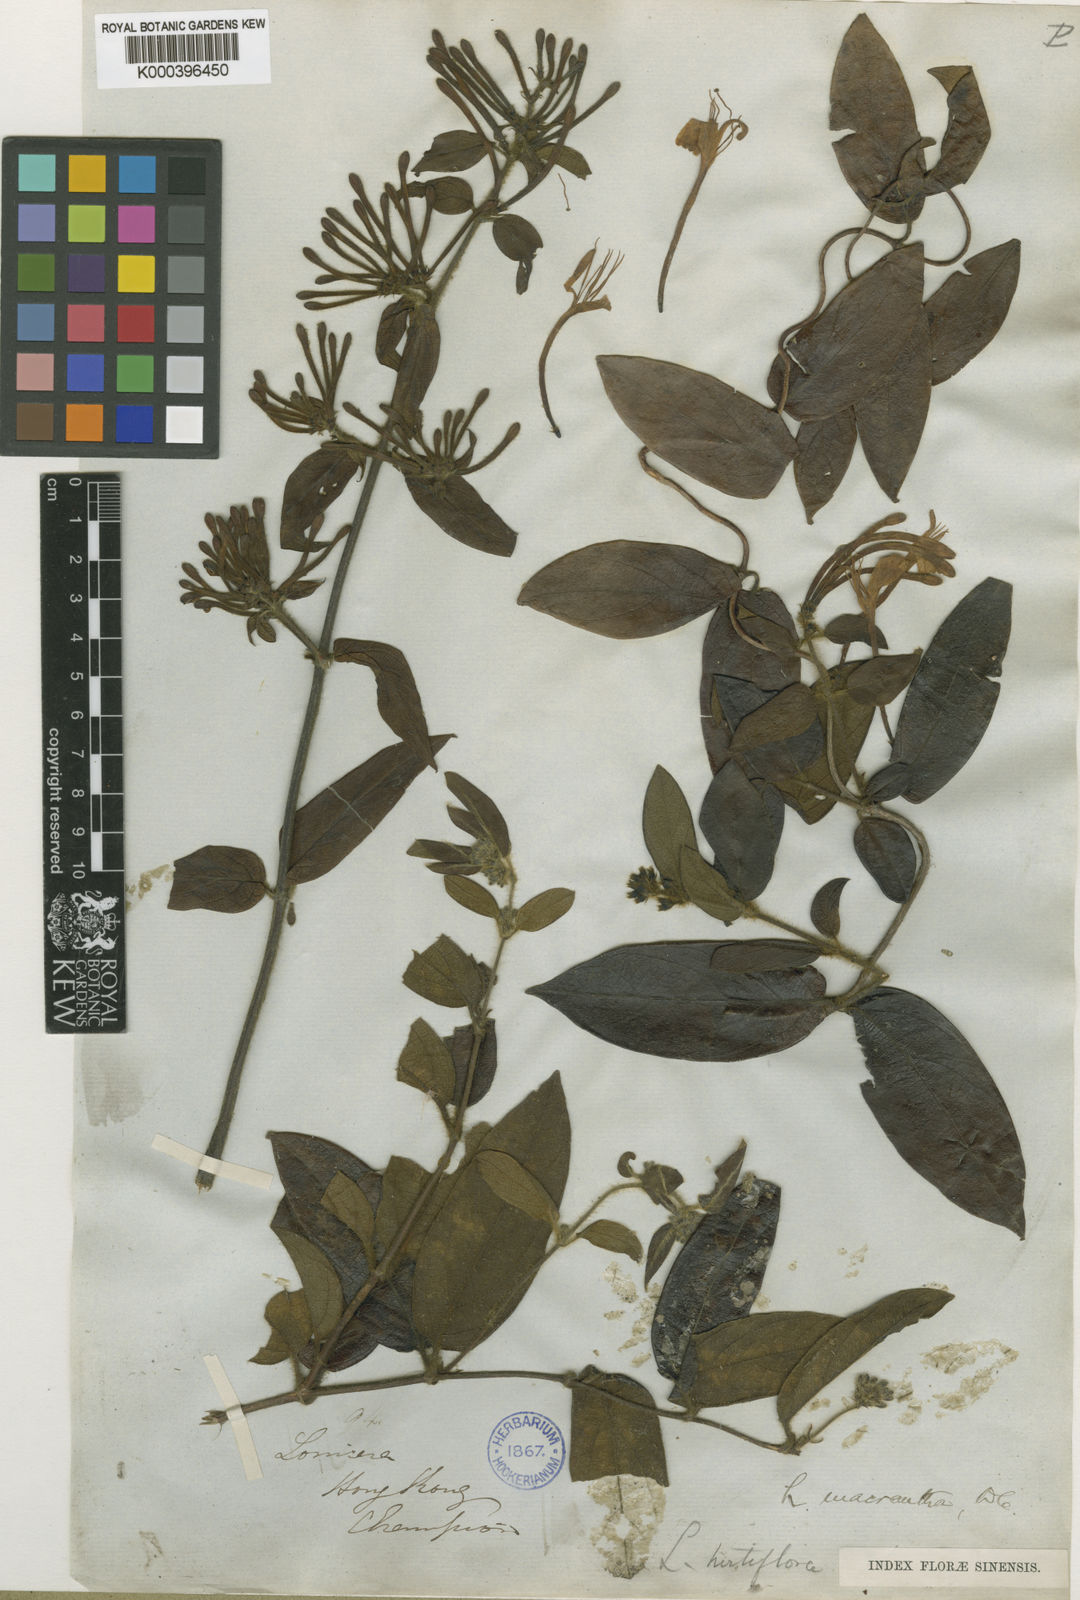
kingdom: Plantae
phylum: Tracheophyta
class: Magnoliopsida
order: Dipsacales
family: Caprifoliaceae
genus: Lonicera
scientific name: Lonicera macrantha
